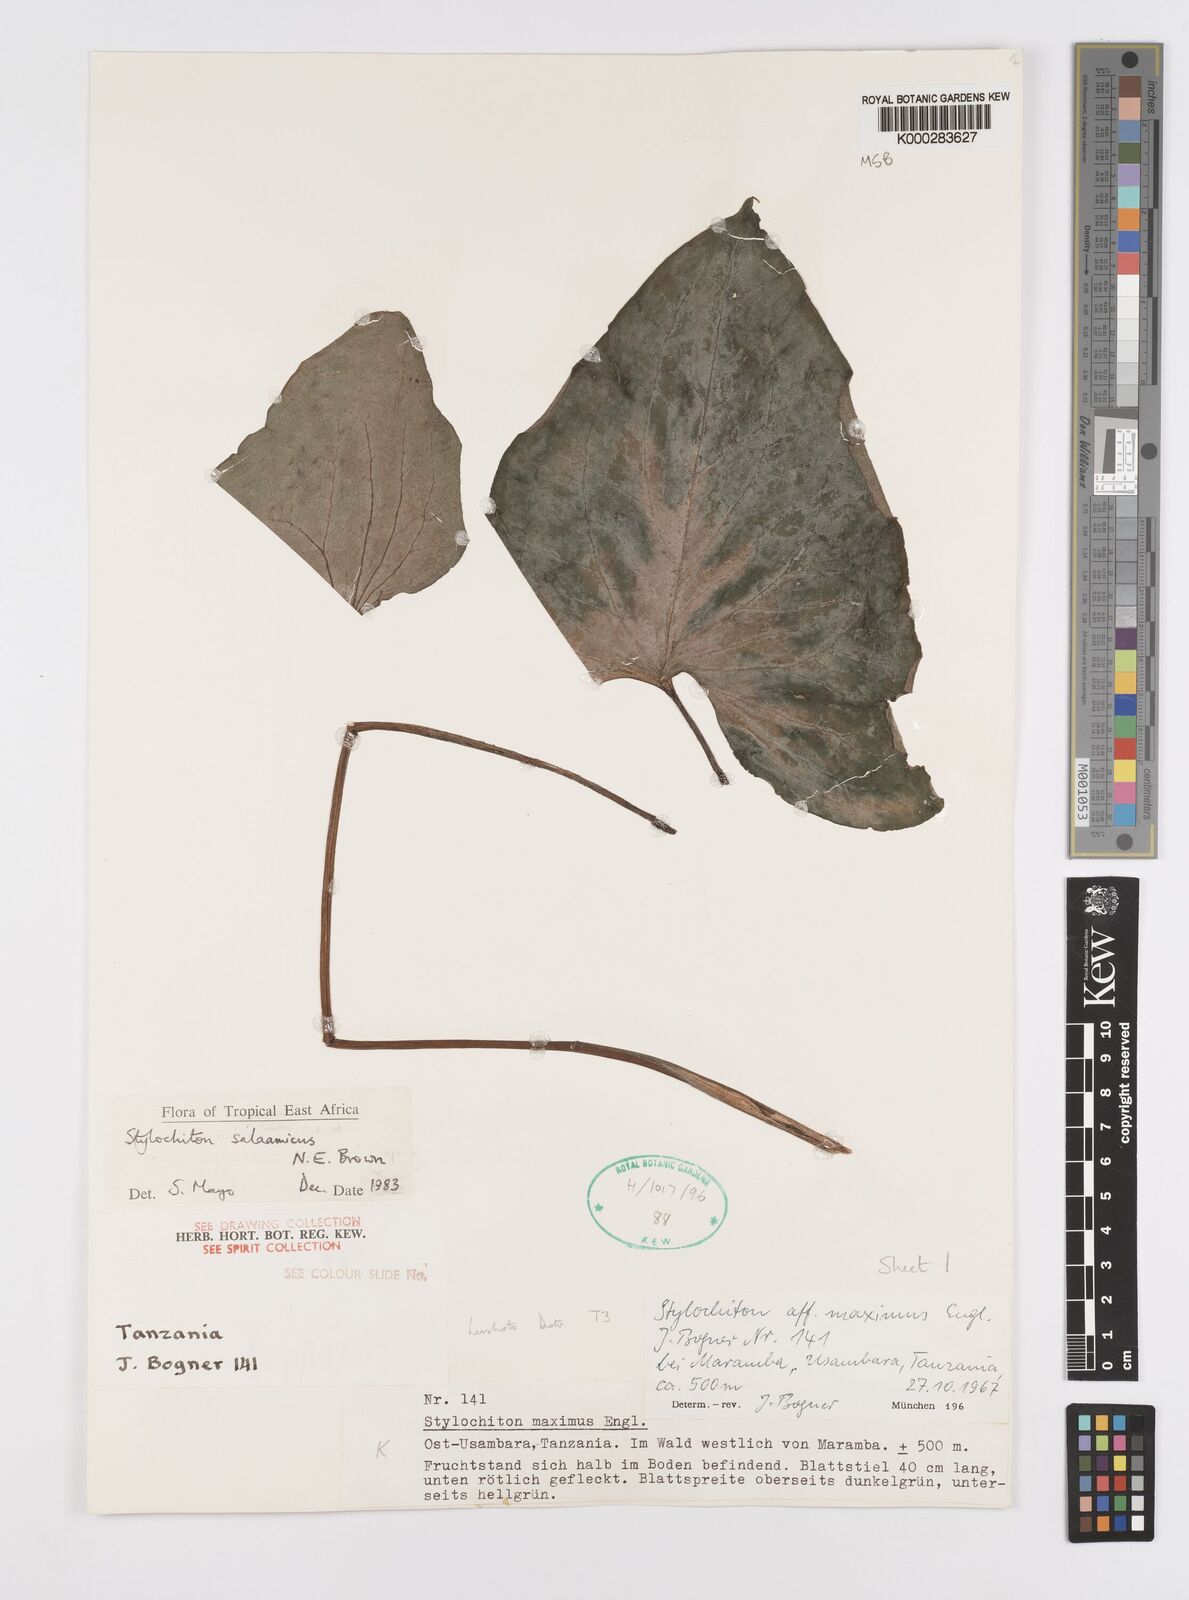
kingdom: Plantae
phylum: Tracheophyta
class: Liliopsida
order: Alismatales
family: Araceae
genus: Stylochaeton
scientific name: Stylochaeton salaamicum
